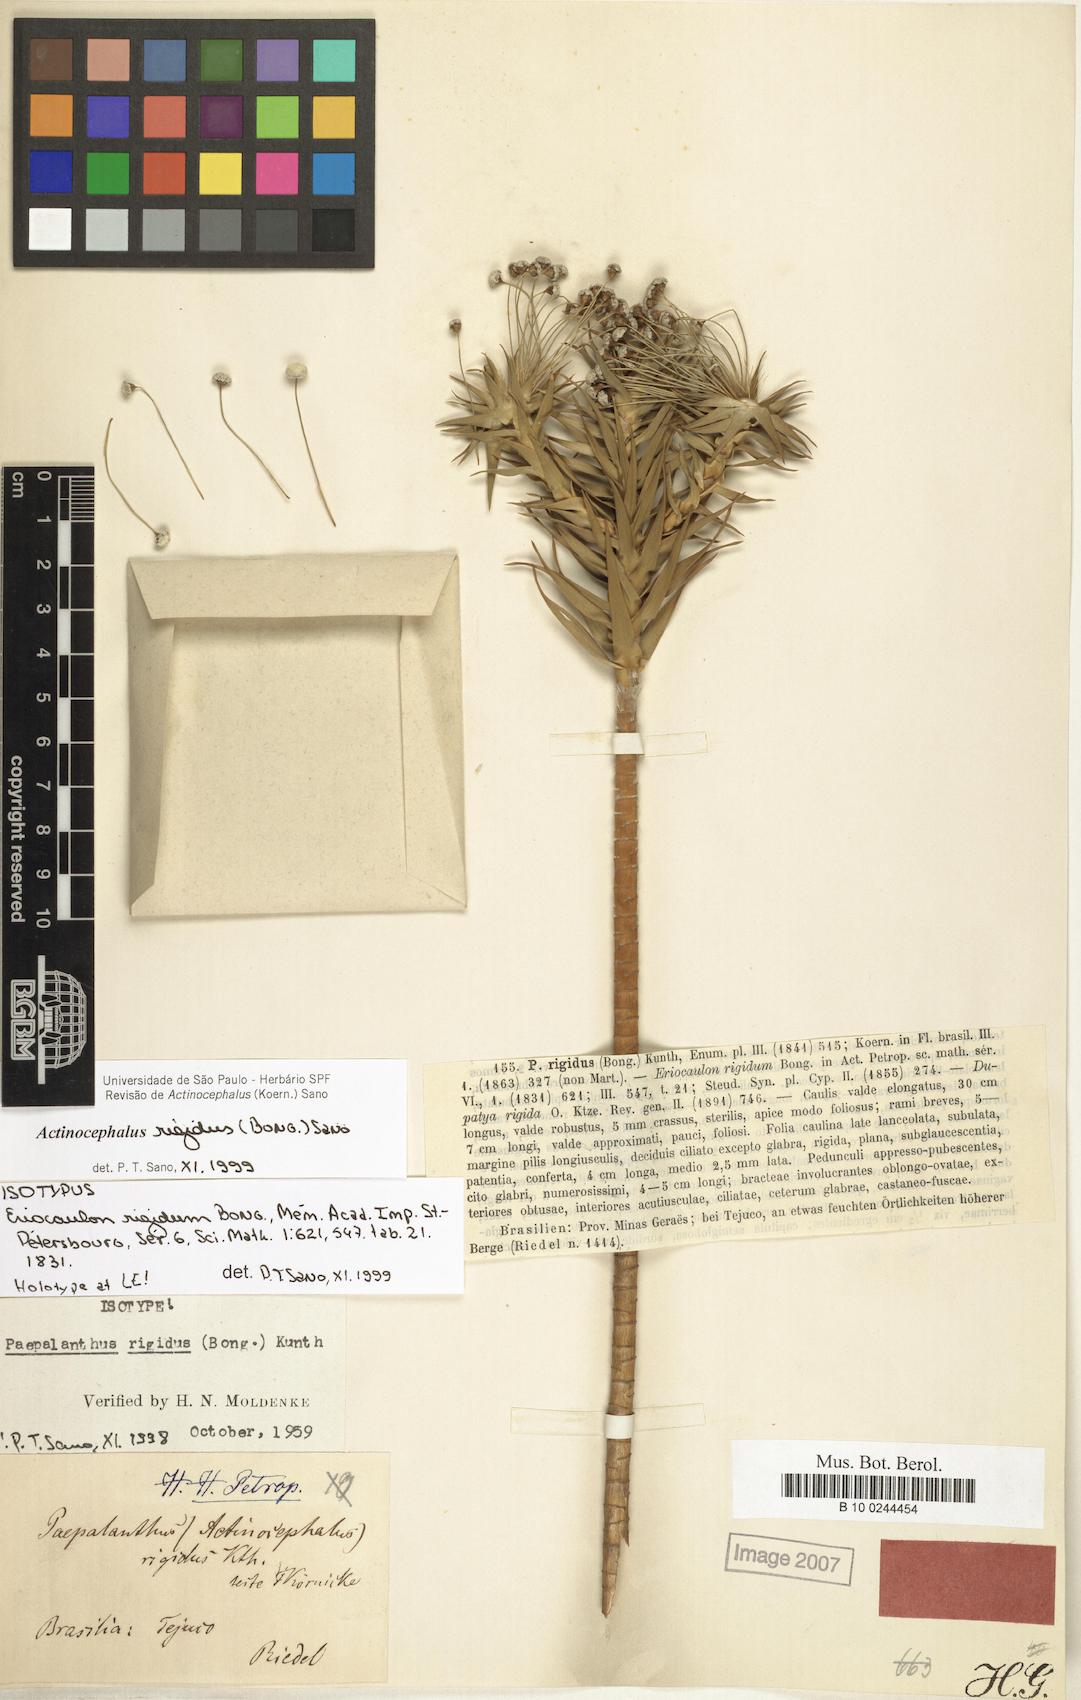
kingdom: Plantae
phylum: Tracheophyta
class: Liliopsida
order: Poales
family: Eriocaulaceae
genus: Paepalanthus
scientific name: Paepalanthus rigidus
